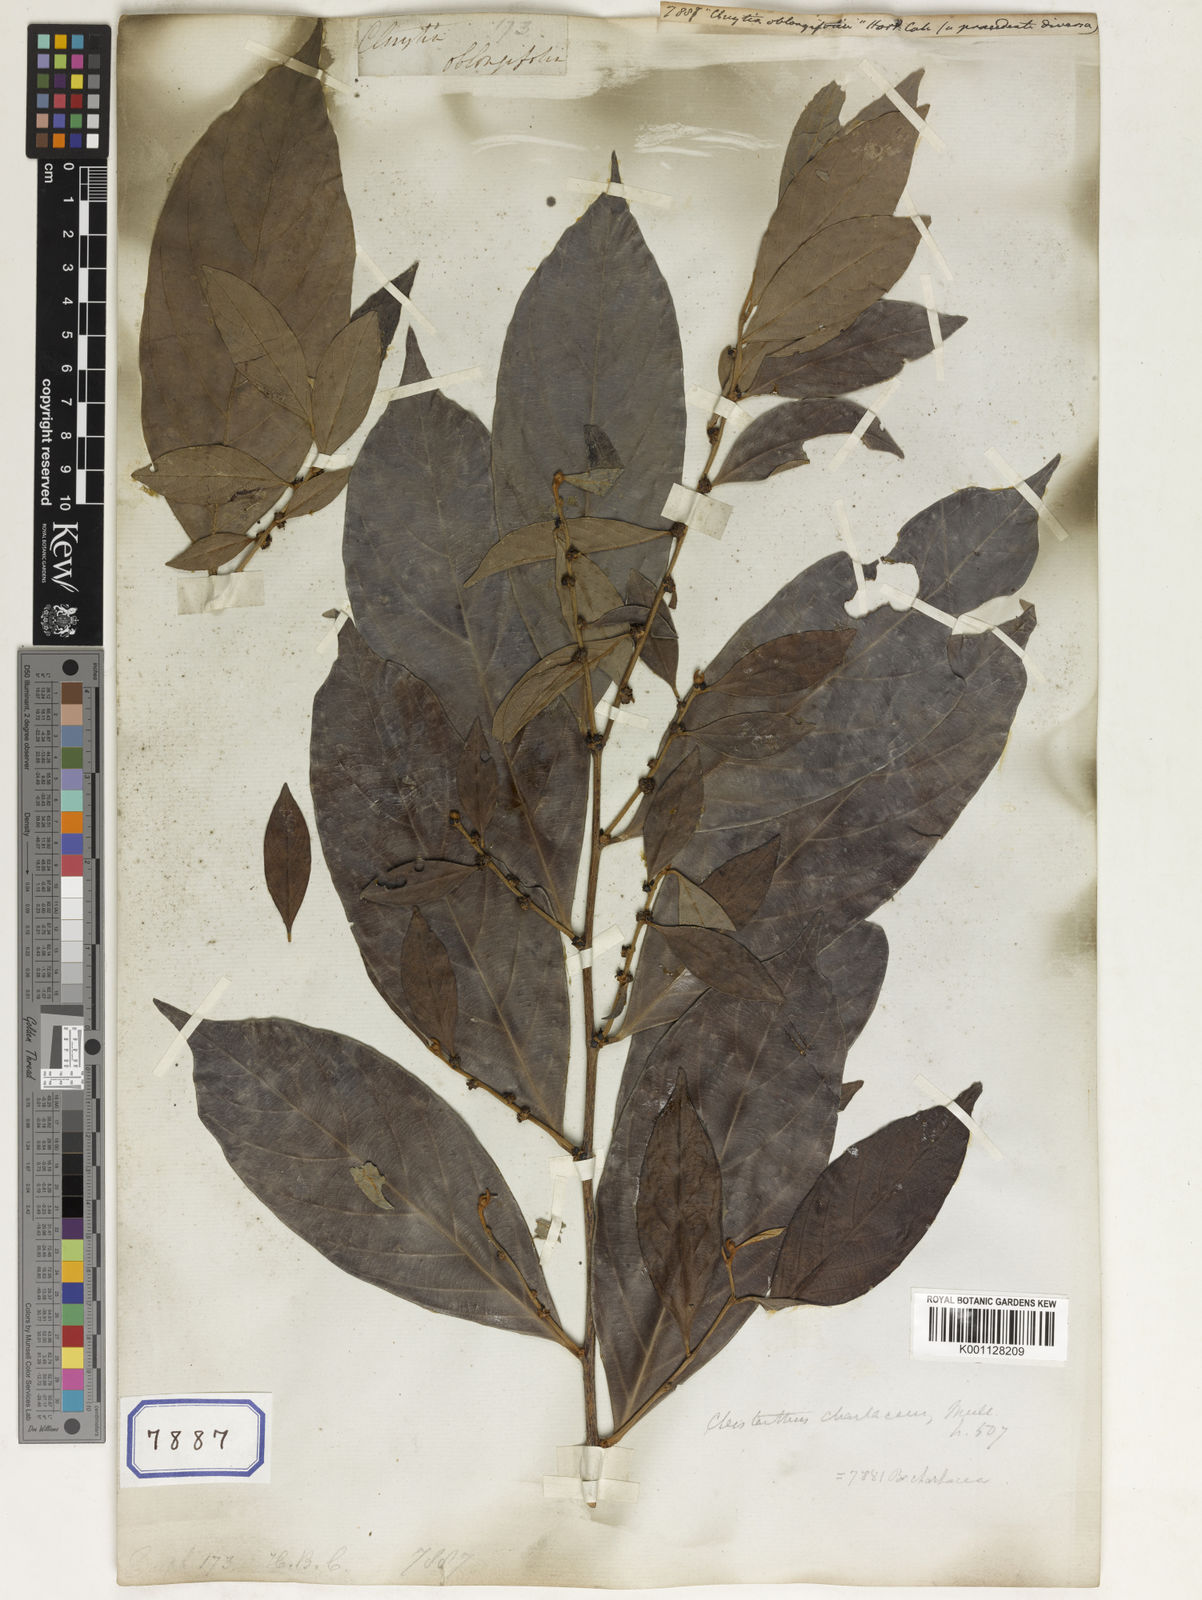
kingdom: Plantae
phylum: Tracheophyta
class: Magnoliopsida
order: Malpighiales
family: Euphorbiaceae
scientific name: Euphorbiaceae
